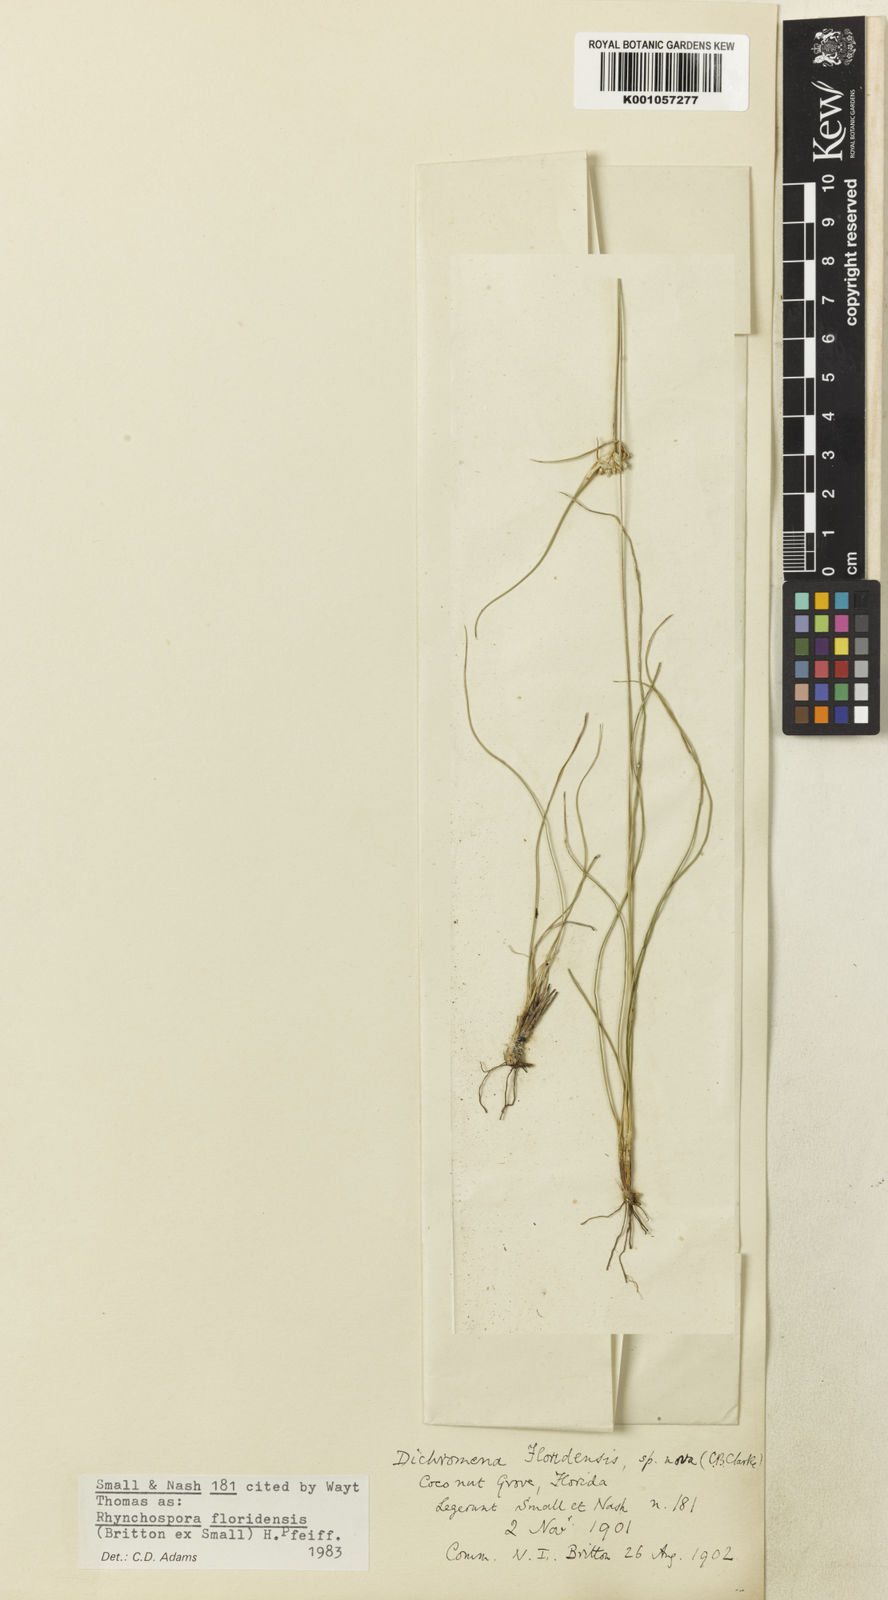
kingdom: Plantae
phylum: Tracheophyta
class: Liliopsida
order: Poales
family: Cyperaceae
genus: Rhynchospora
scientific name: Rhynchospora floridensis
